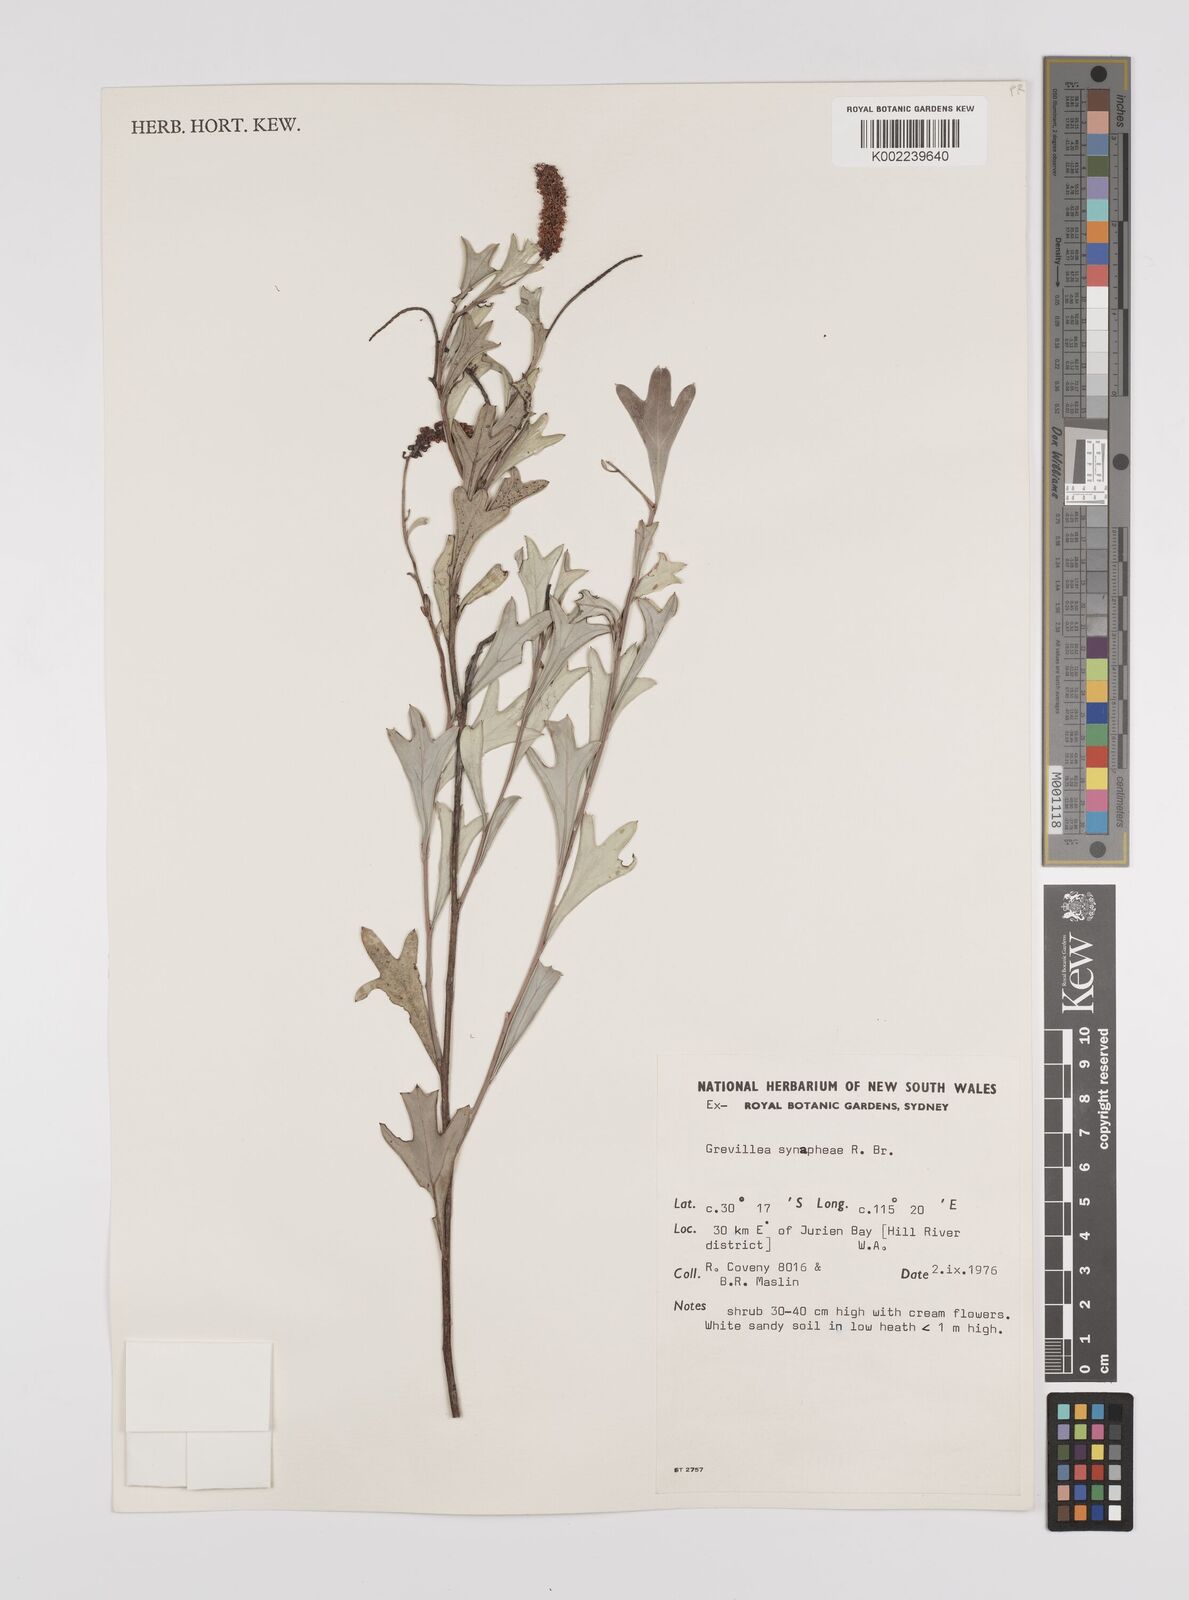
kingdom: Plantae
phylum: Tracheophyta
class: Magnoliopsida
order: Proteales
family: Proteaceae
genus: Grevillea
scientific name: Grevillea synaphea
